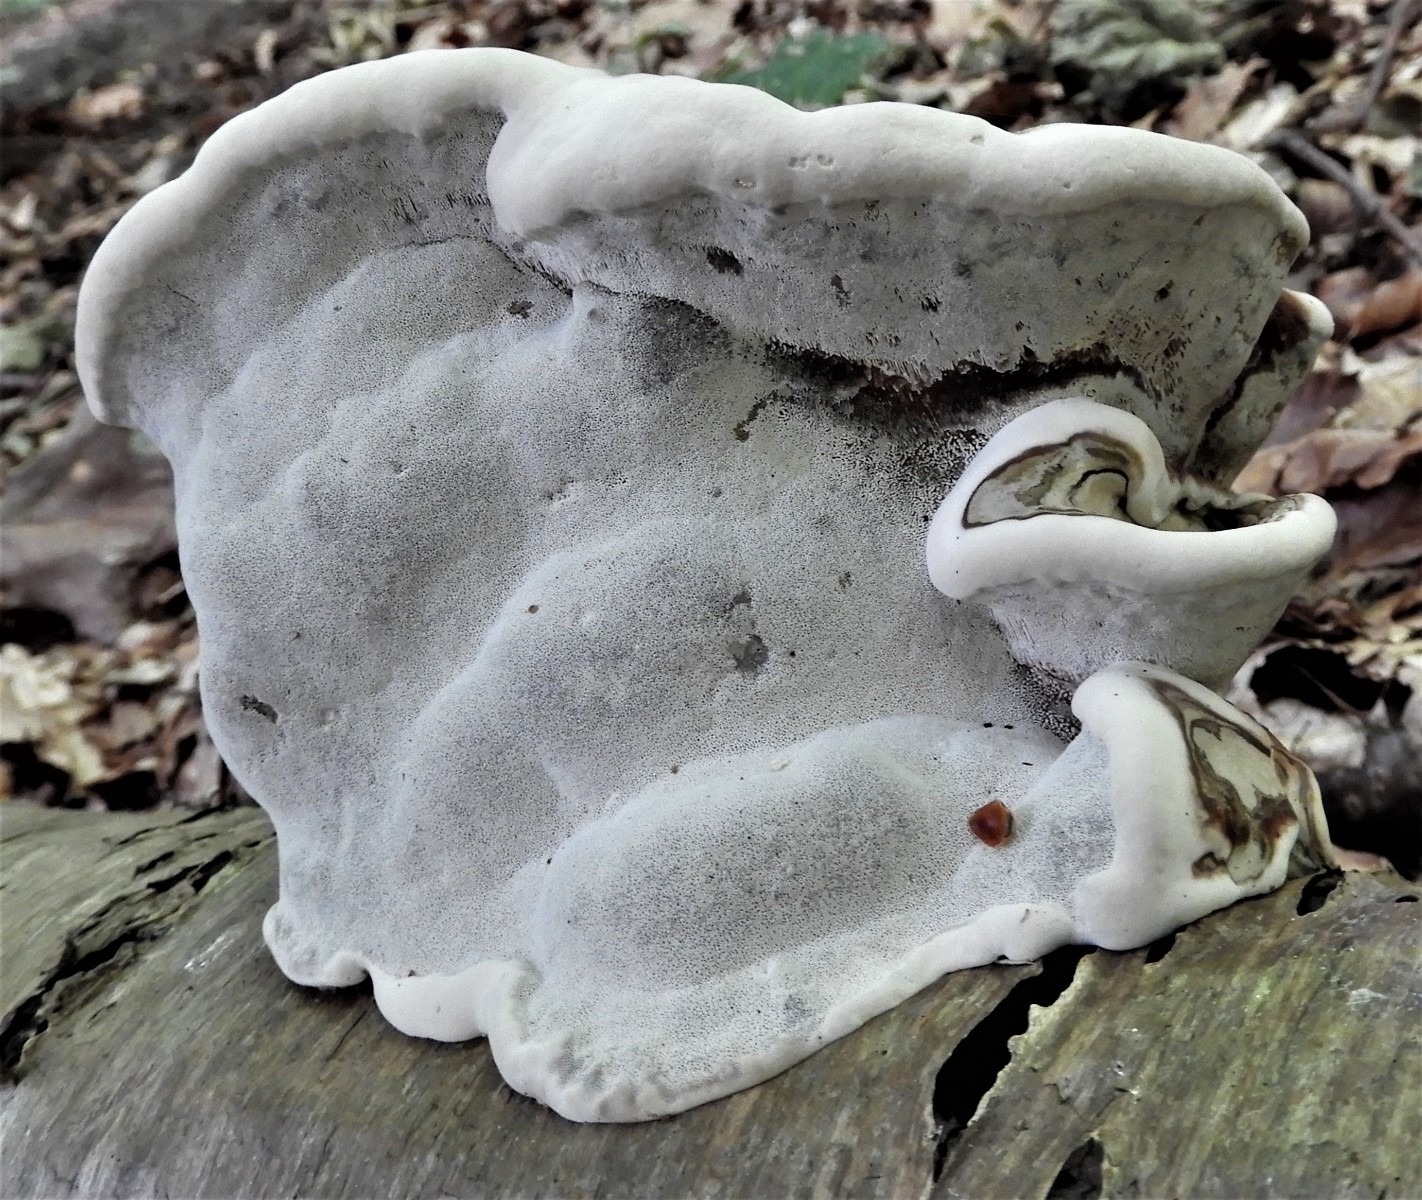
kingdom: Fungi
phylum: Basidiomycota
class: Agaricomycetes
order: Polyporales
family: Polyporaceae
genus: Fomes
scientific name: Fomes fomentarius
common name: tøndersvamp
